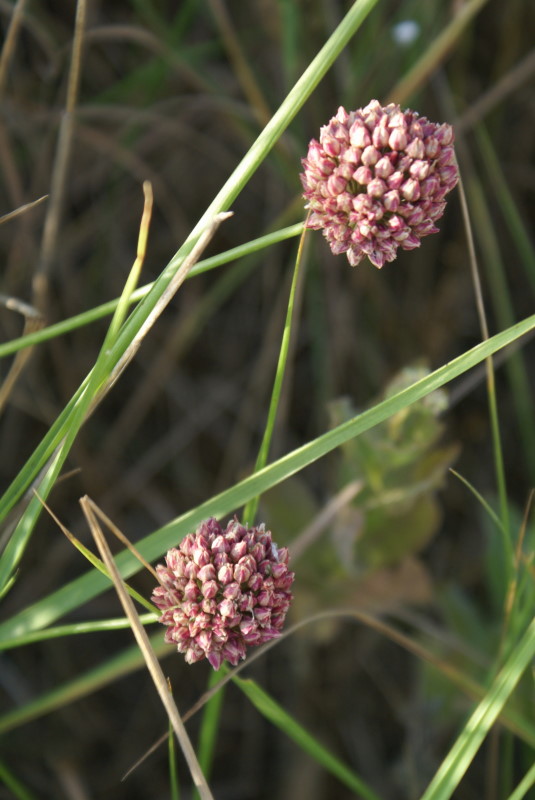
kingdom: Plantae
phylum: Tracheophyta
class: Liliopsida
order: Asparagales
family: Amaryllidaceae
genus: Allium
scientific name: Allium rotundum
